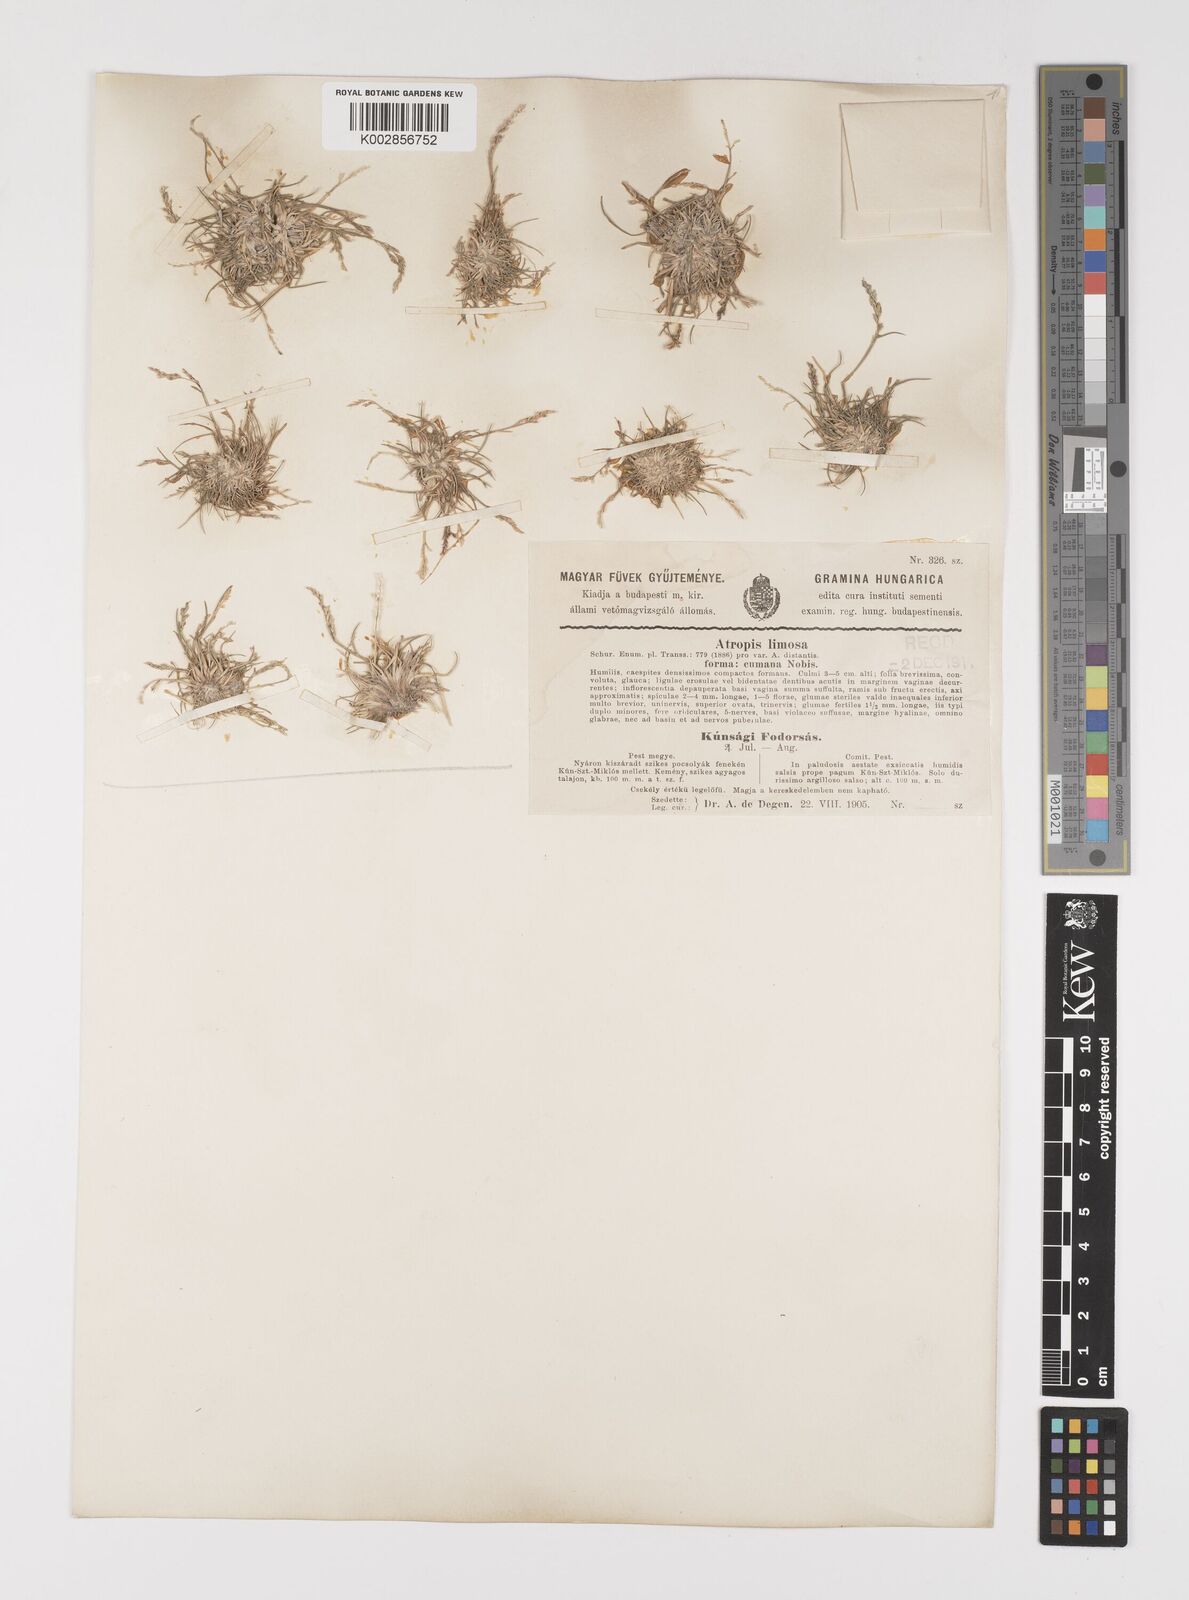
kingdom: Plantae
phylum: Tracheophyta
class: Liliopsida
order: Poales
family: Poaceae
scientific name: Poaceae
